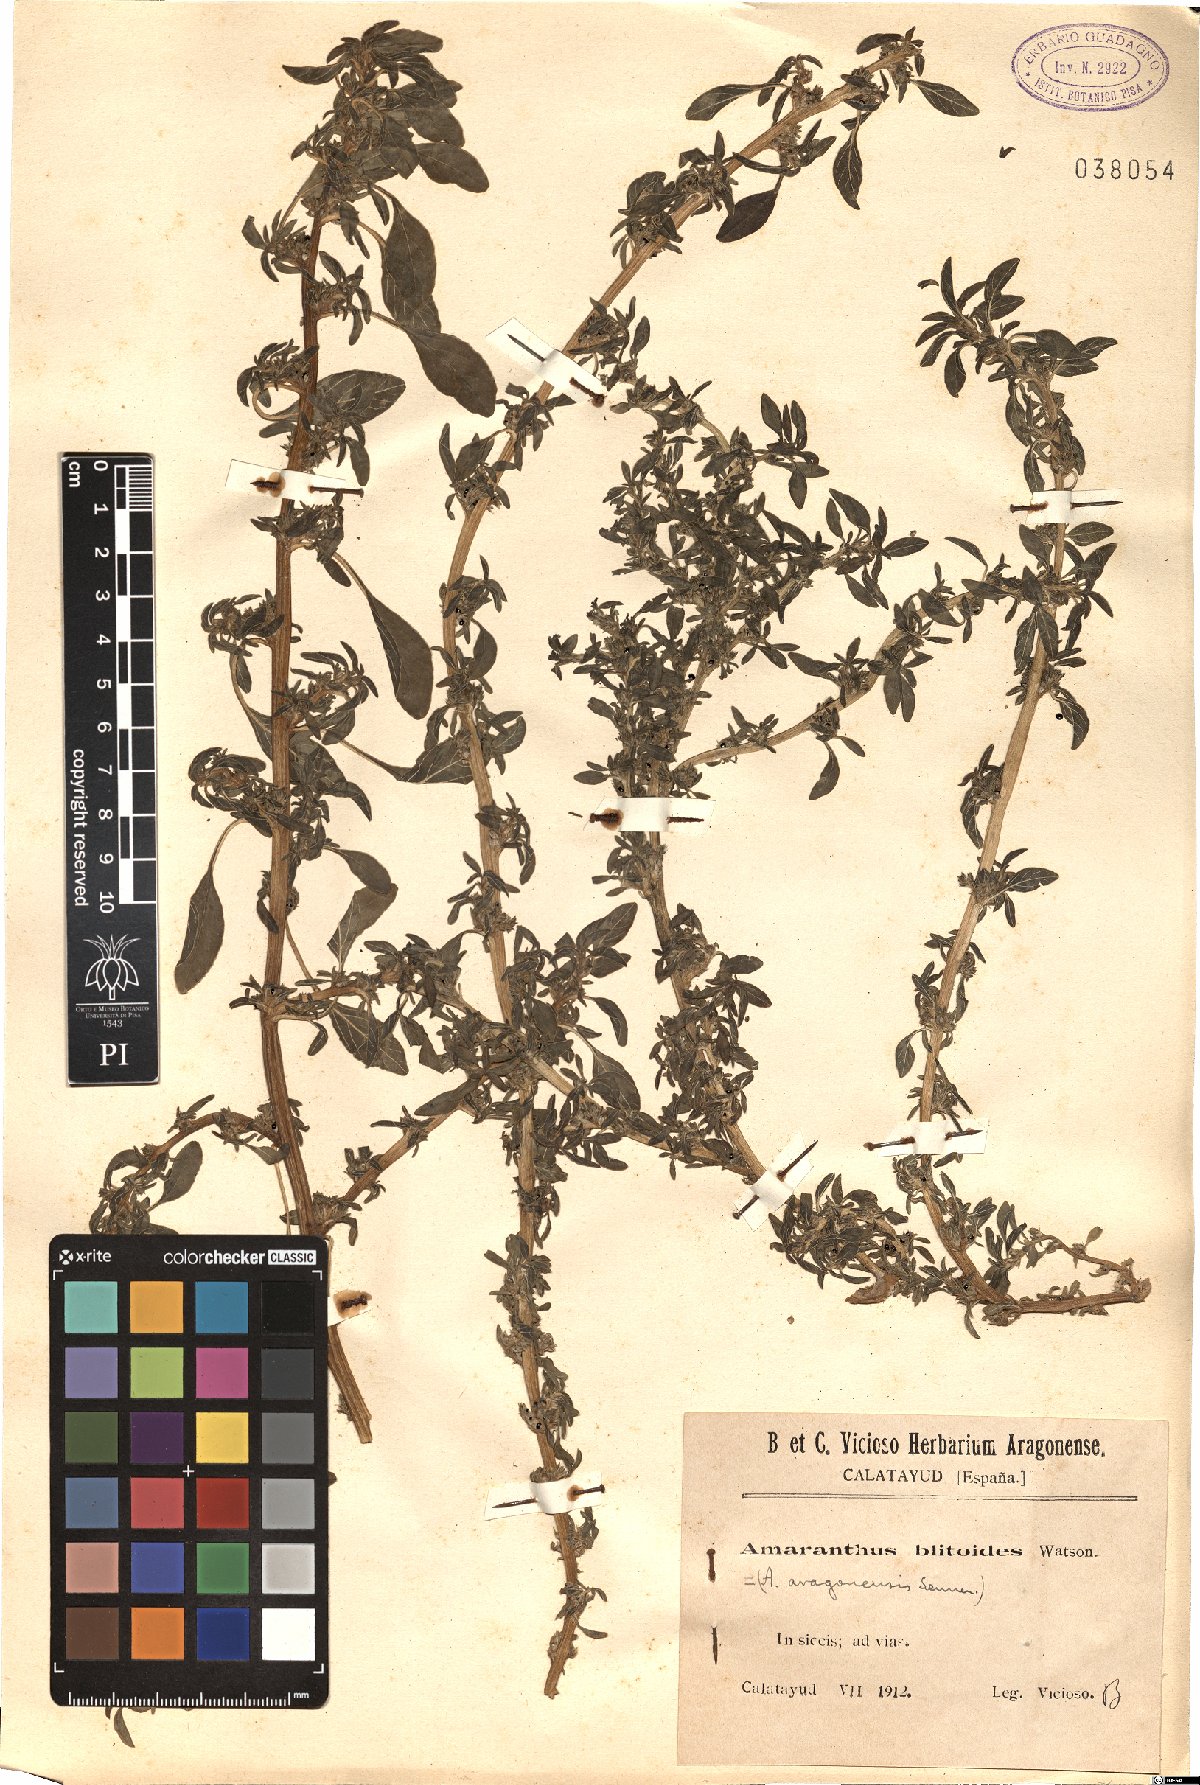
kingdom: Plantae
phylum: Tracheophyta
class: Magnoliopsida
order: Caryophyllales
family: Amaranthaceae
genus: Amaranthus
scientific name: Amaranthus blitoides
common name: Prostrate pigweed
